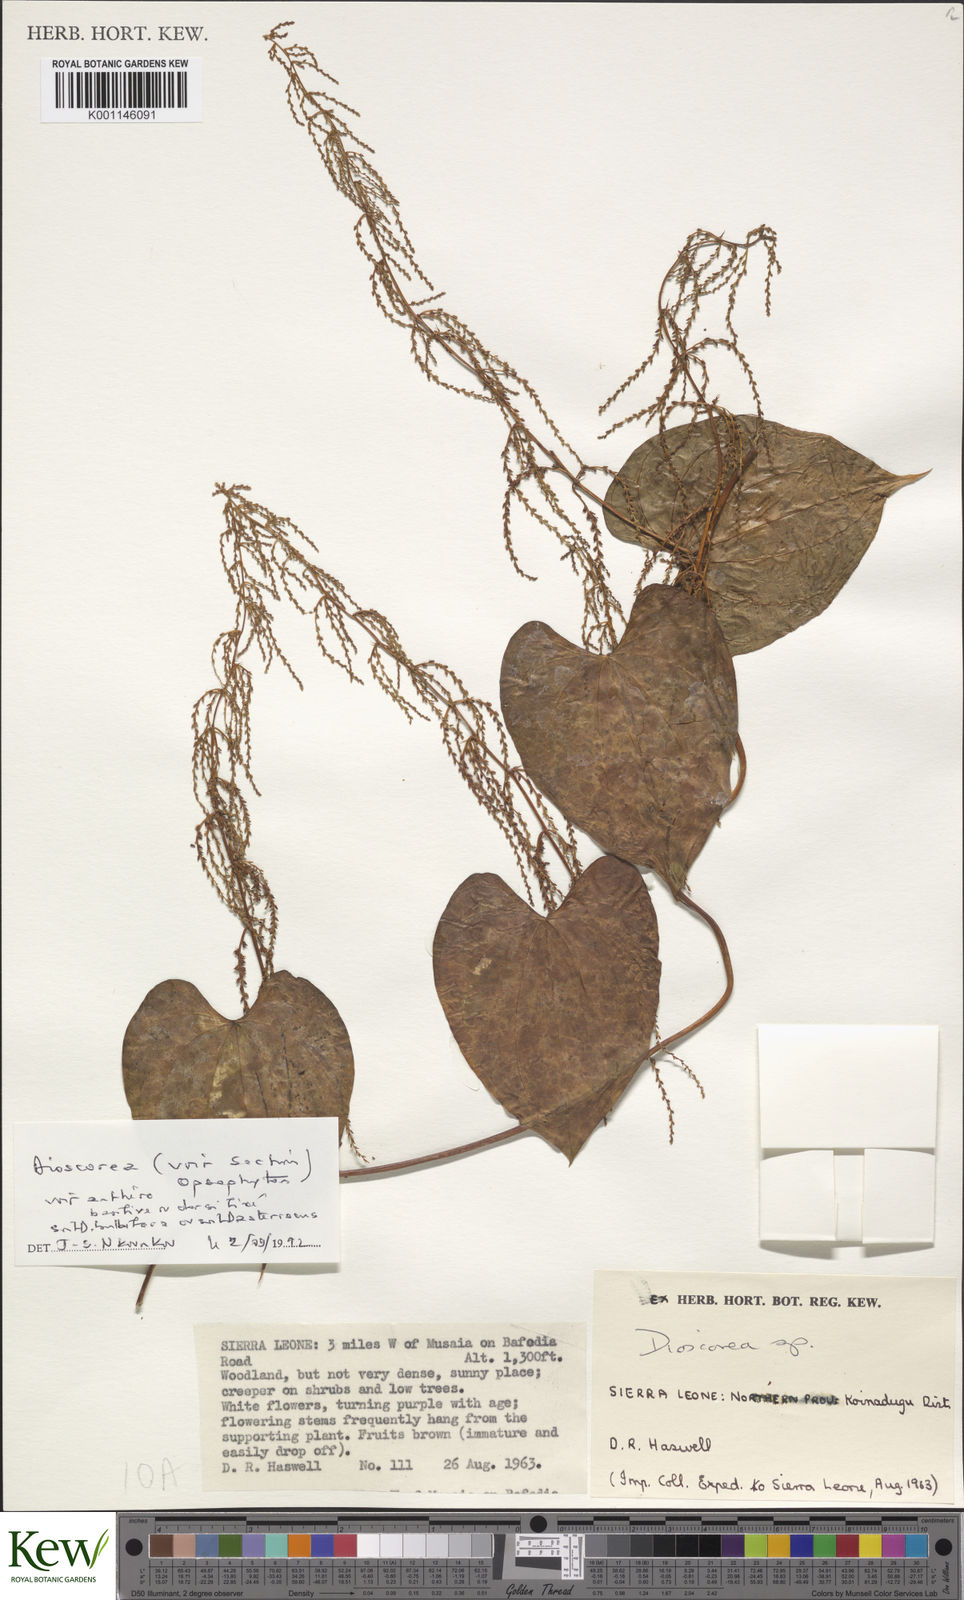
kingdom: Plantae
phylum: Tracheophyta
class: Liliopsida
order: Dioscoreales
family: Dioscoreaceae
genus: Dioscorea
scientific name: Dioscorea
